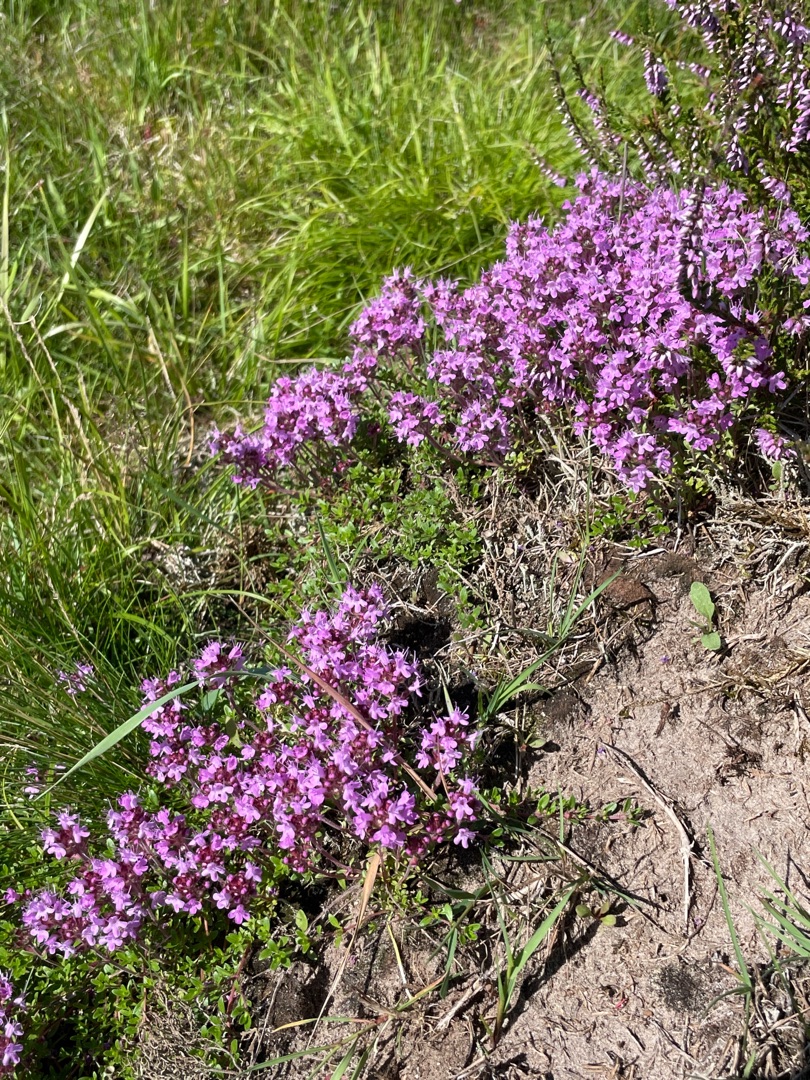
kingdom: Plantae
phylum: Tracheophyta
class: Magnoliopsida
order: Lamiales
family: Lamiaceae
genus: Thymus
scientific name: Thymus serpyllum
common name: Smalbladet timian
